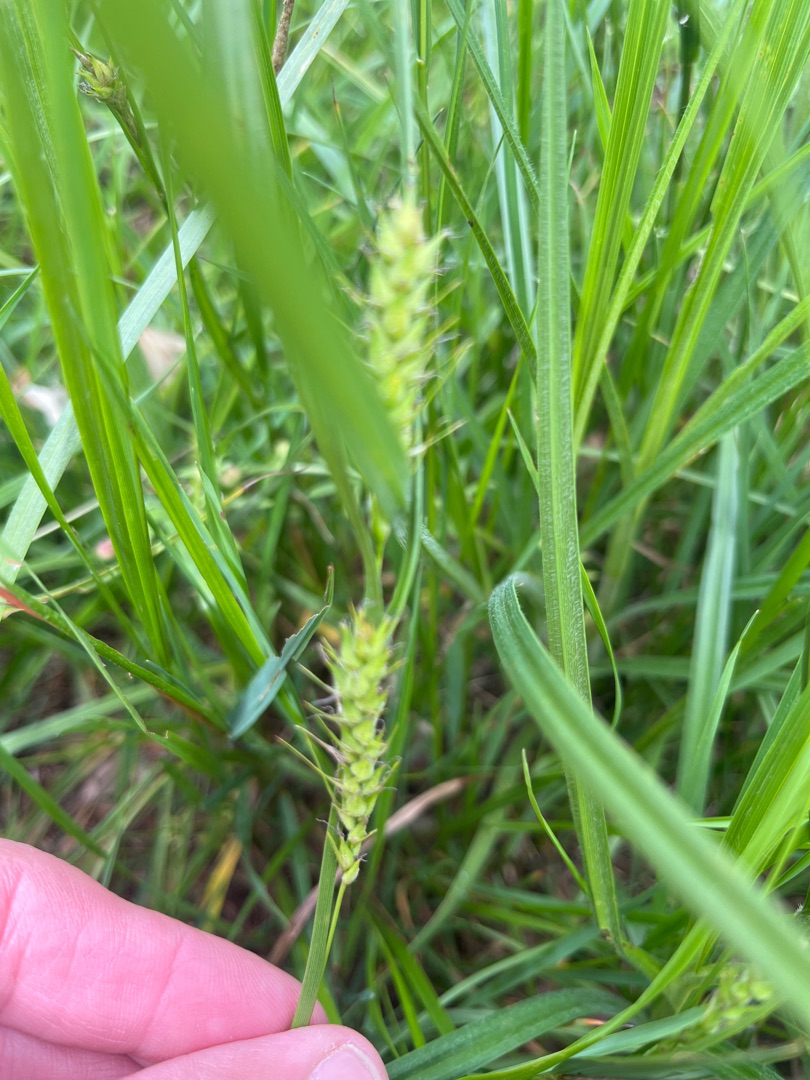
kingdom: Plantae
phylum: Tracheophyta
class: Liliopsida
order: Poales
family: Cyperaceae
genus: Carex
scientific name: Carex hirta
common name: Håret star
